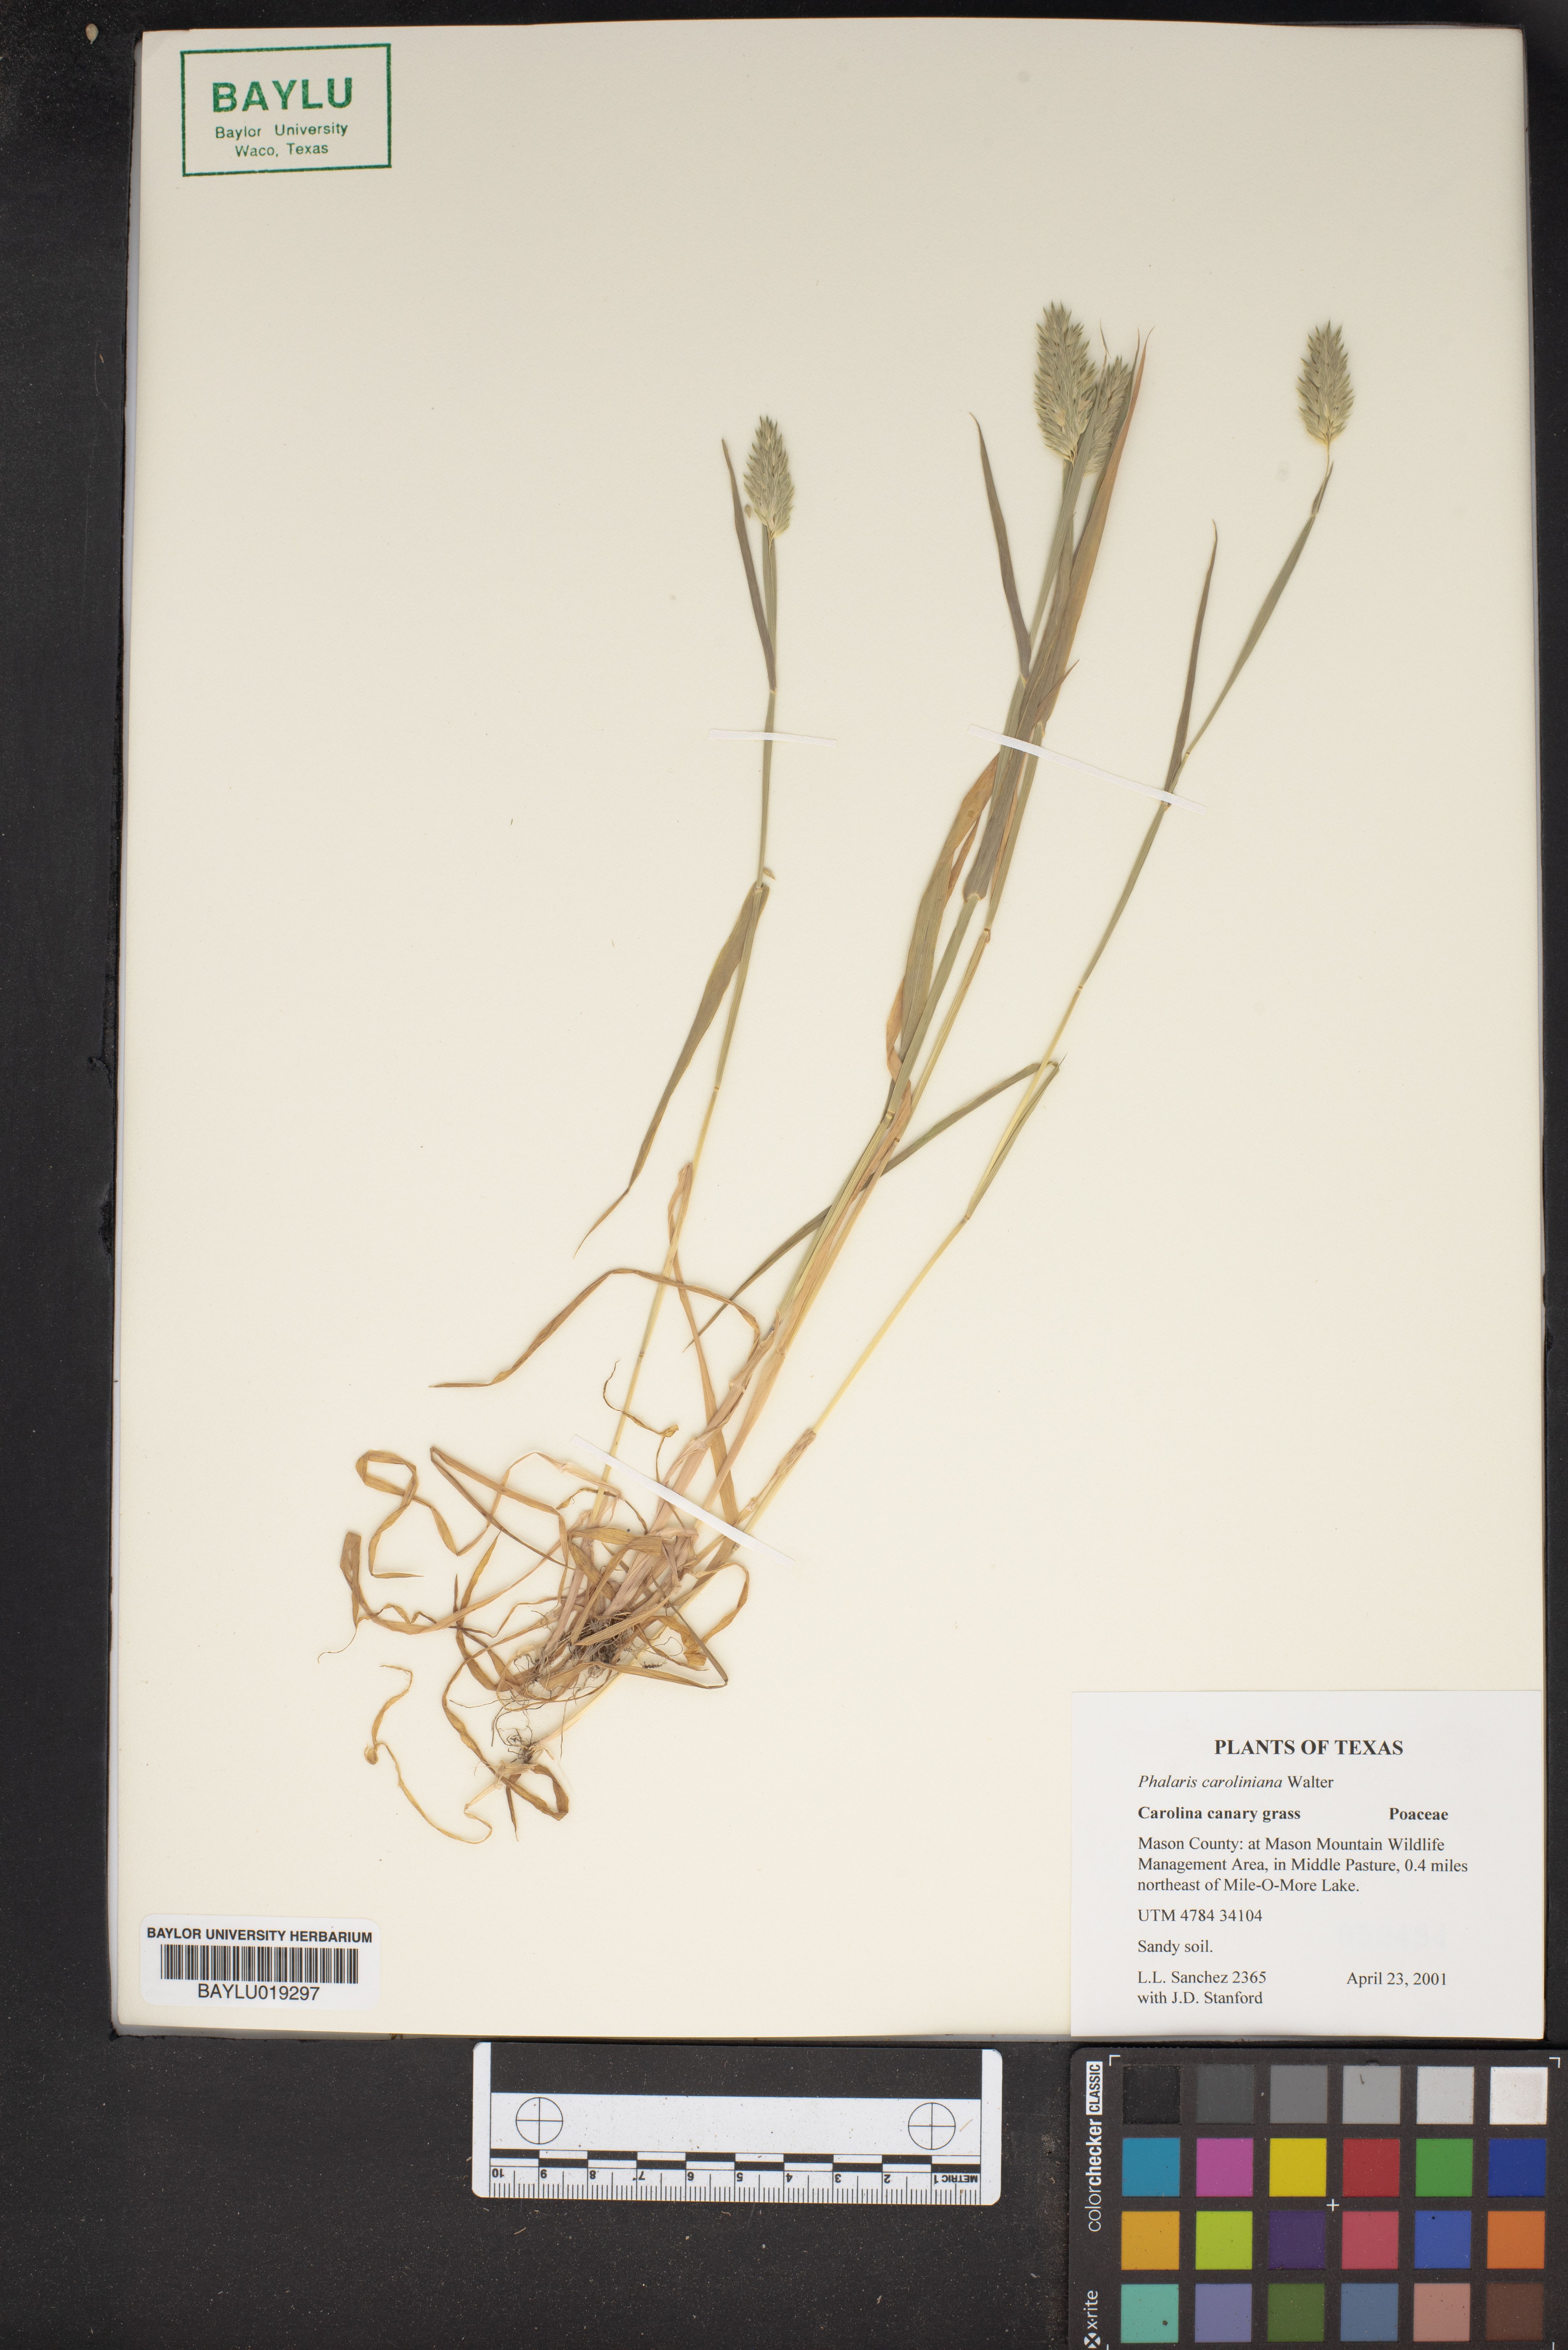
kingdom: Plantae
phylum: Tracheophyta
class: Liliopsida
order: Poales
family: Poaceae
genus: Phalaris
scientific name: Phalaris caroliniana
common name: May grass
